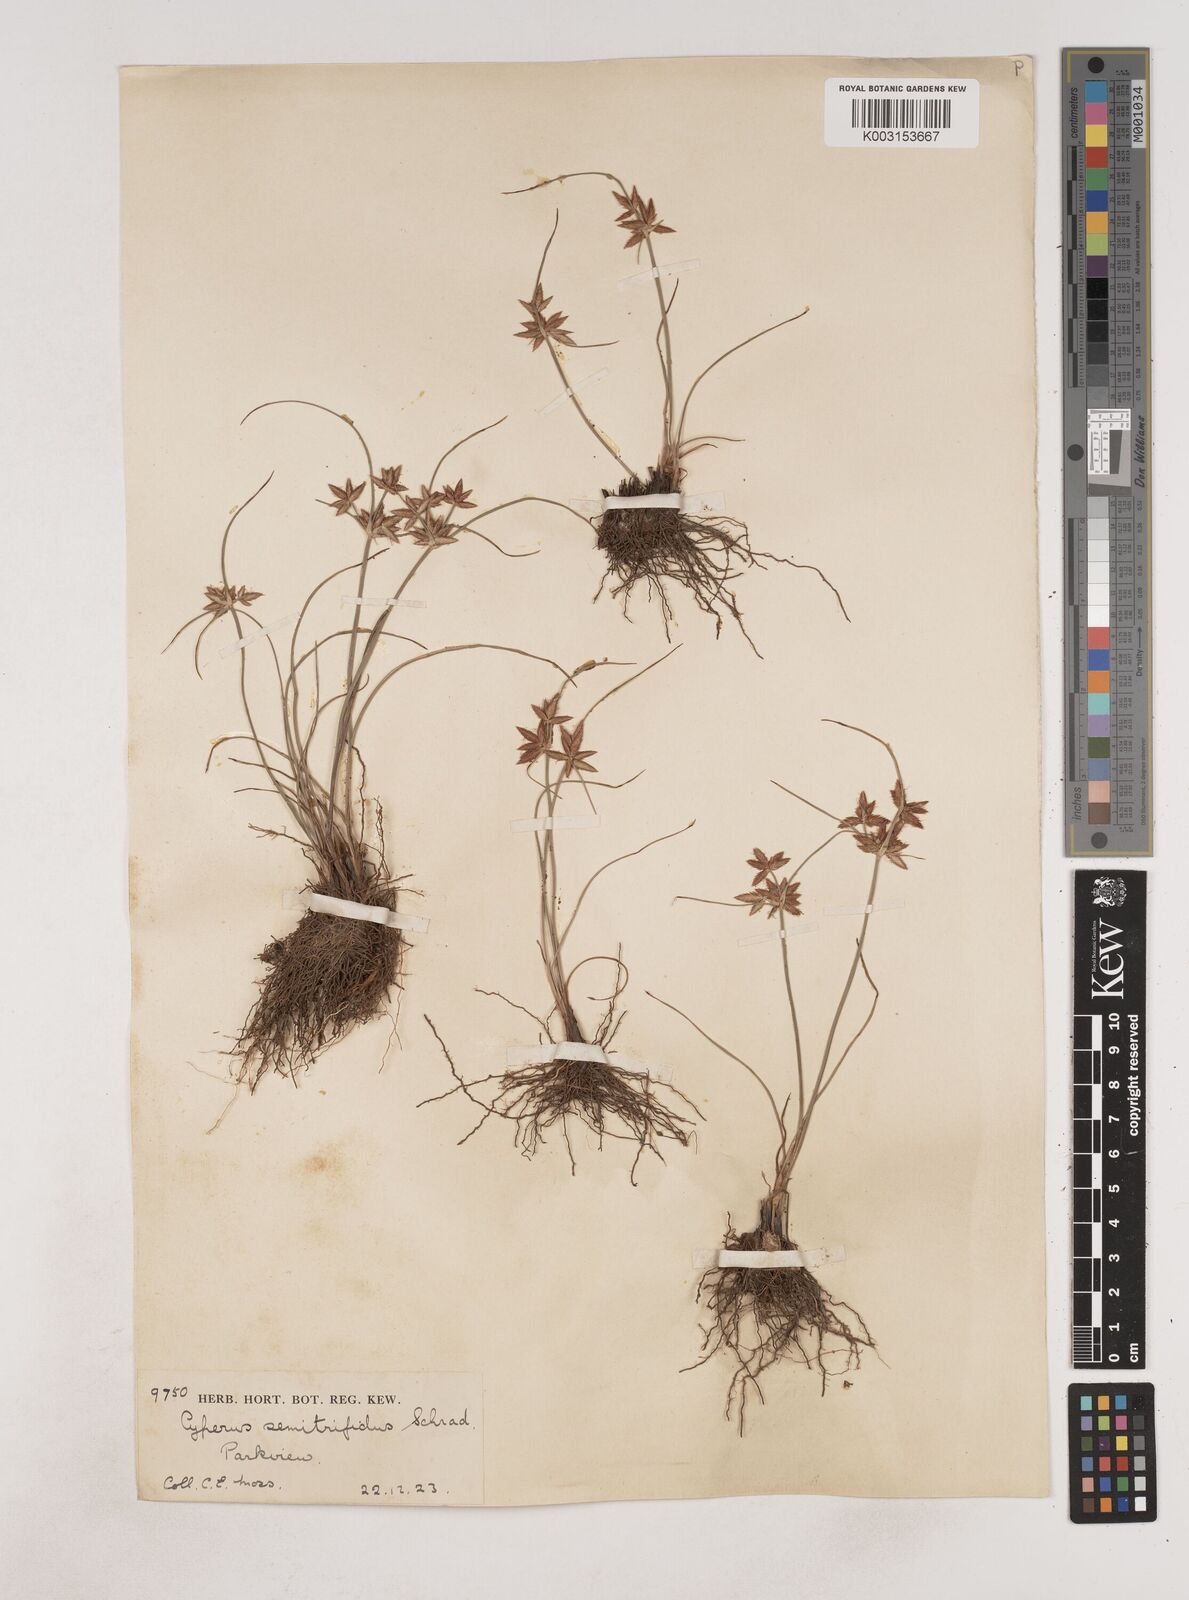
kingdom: Plantae
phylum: Tracheophyta
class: Liliopsida
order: Poales
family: Cyperaceae
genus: Cyperus
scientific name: Cyperus semitrifidus
